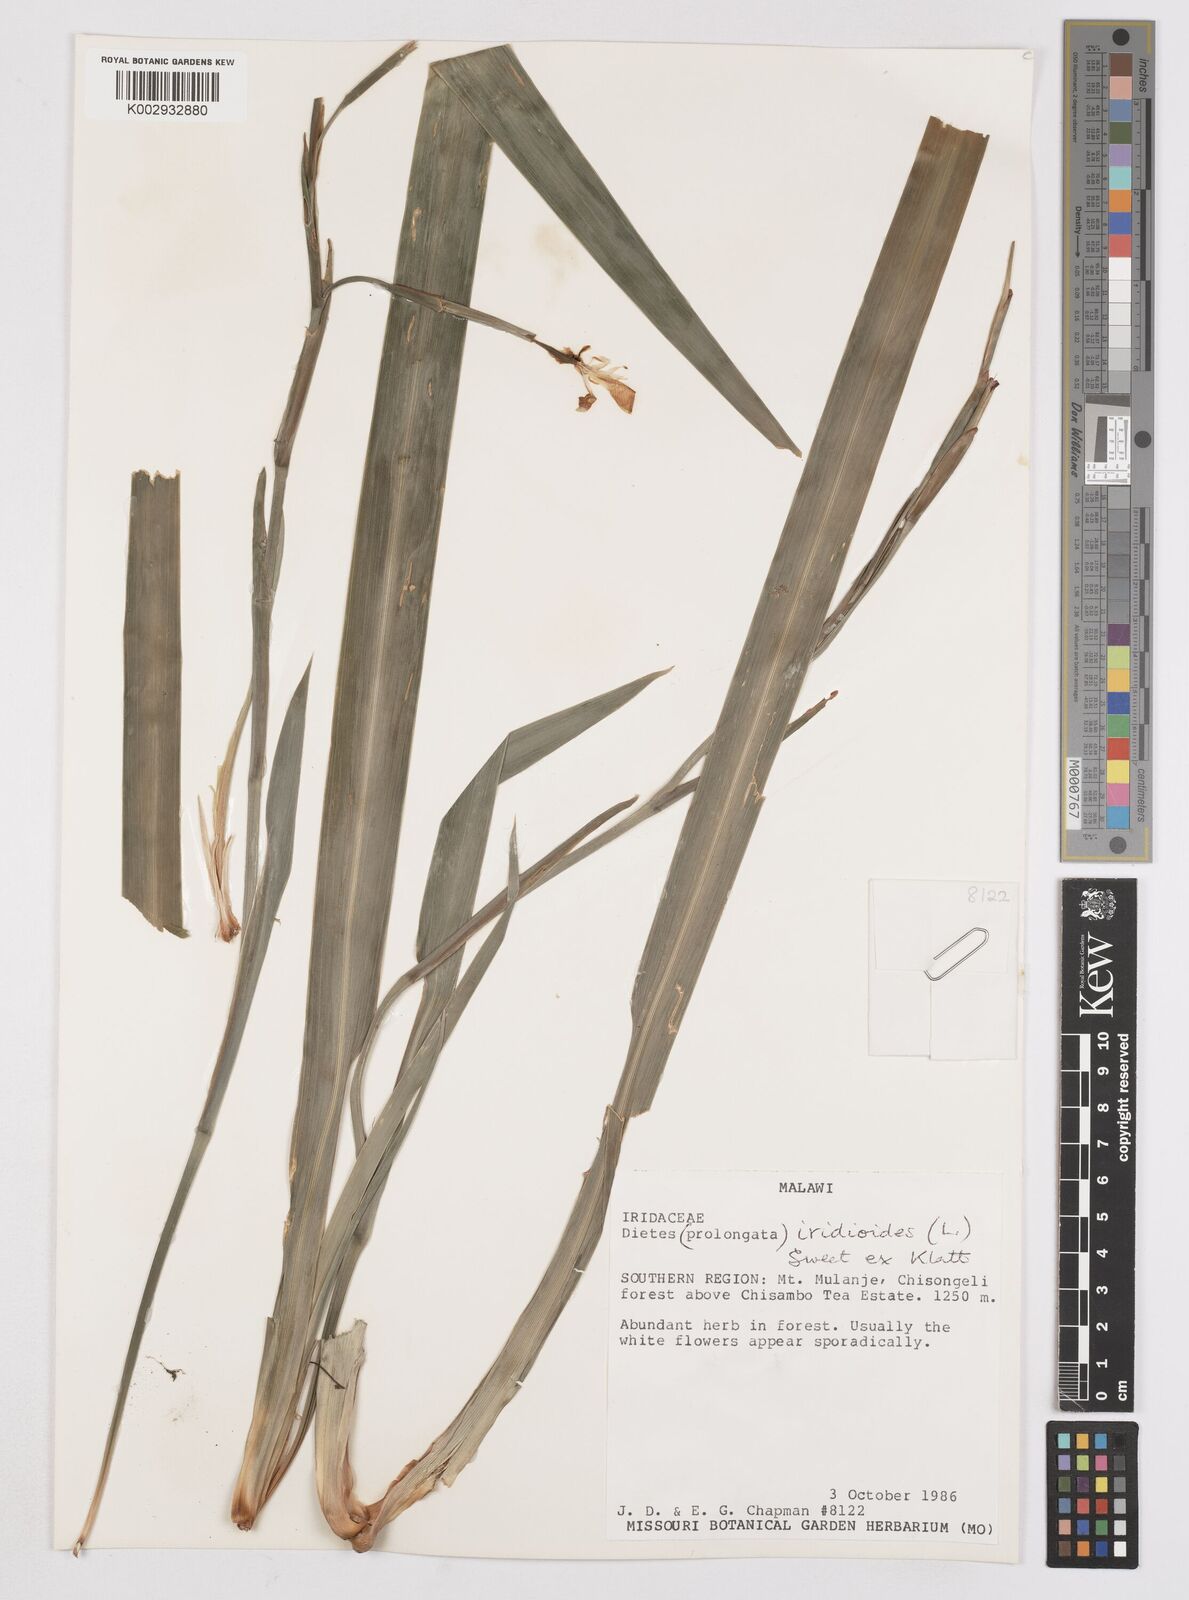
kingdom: Plantae
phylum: Tracheophyta
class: Liliopsida
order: Asparagales
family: Iridaceae
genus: Dietes
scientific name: Dietes iridioides
